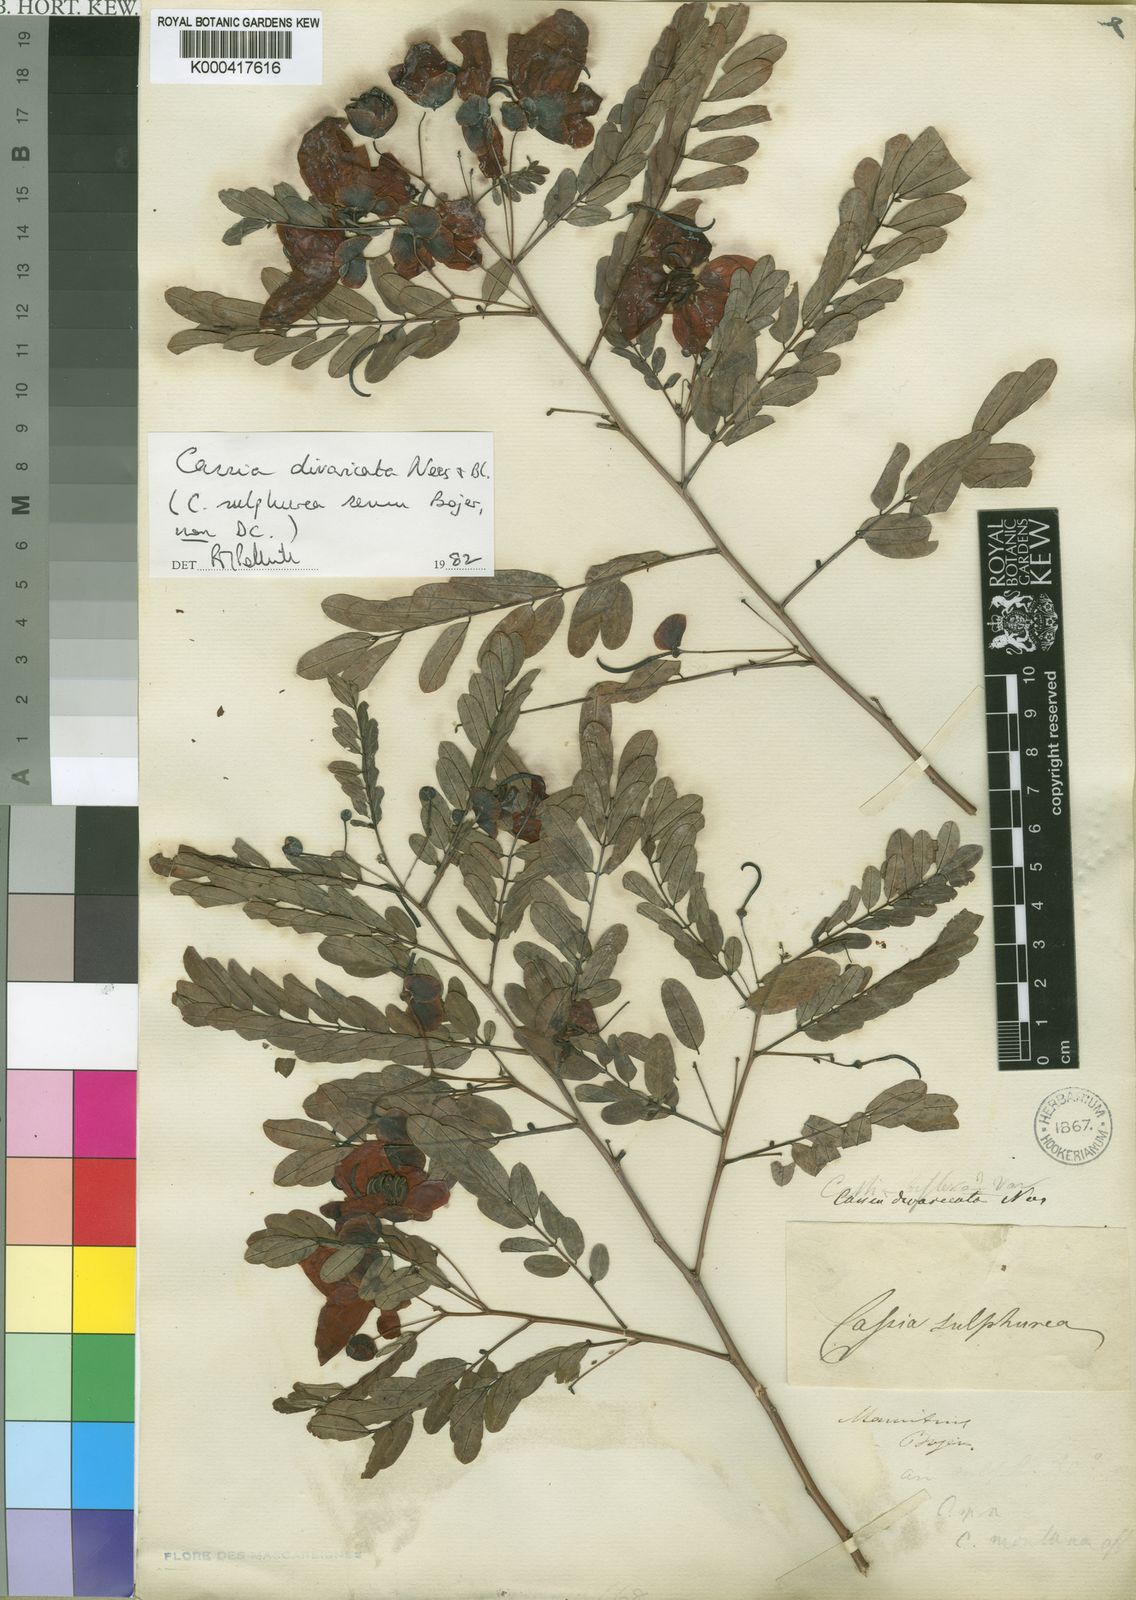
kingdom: Plantae
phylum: Tracheophyta
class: Magnoliopsida
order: Fabales
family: Fabaceae
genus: Senna
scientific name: Senna divaricata
